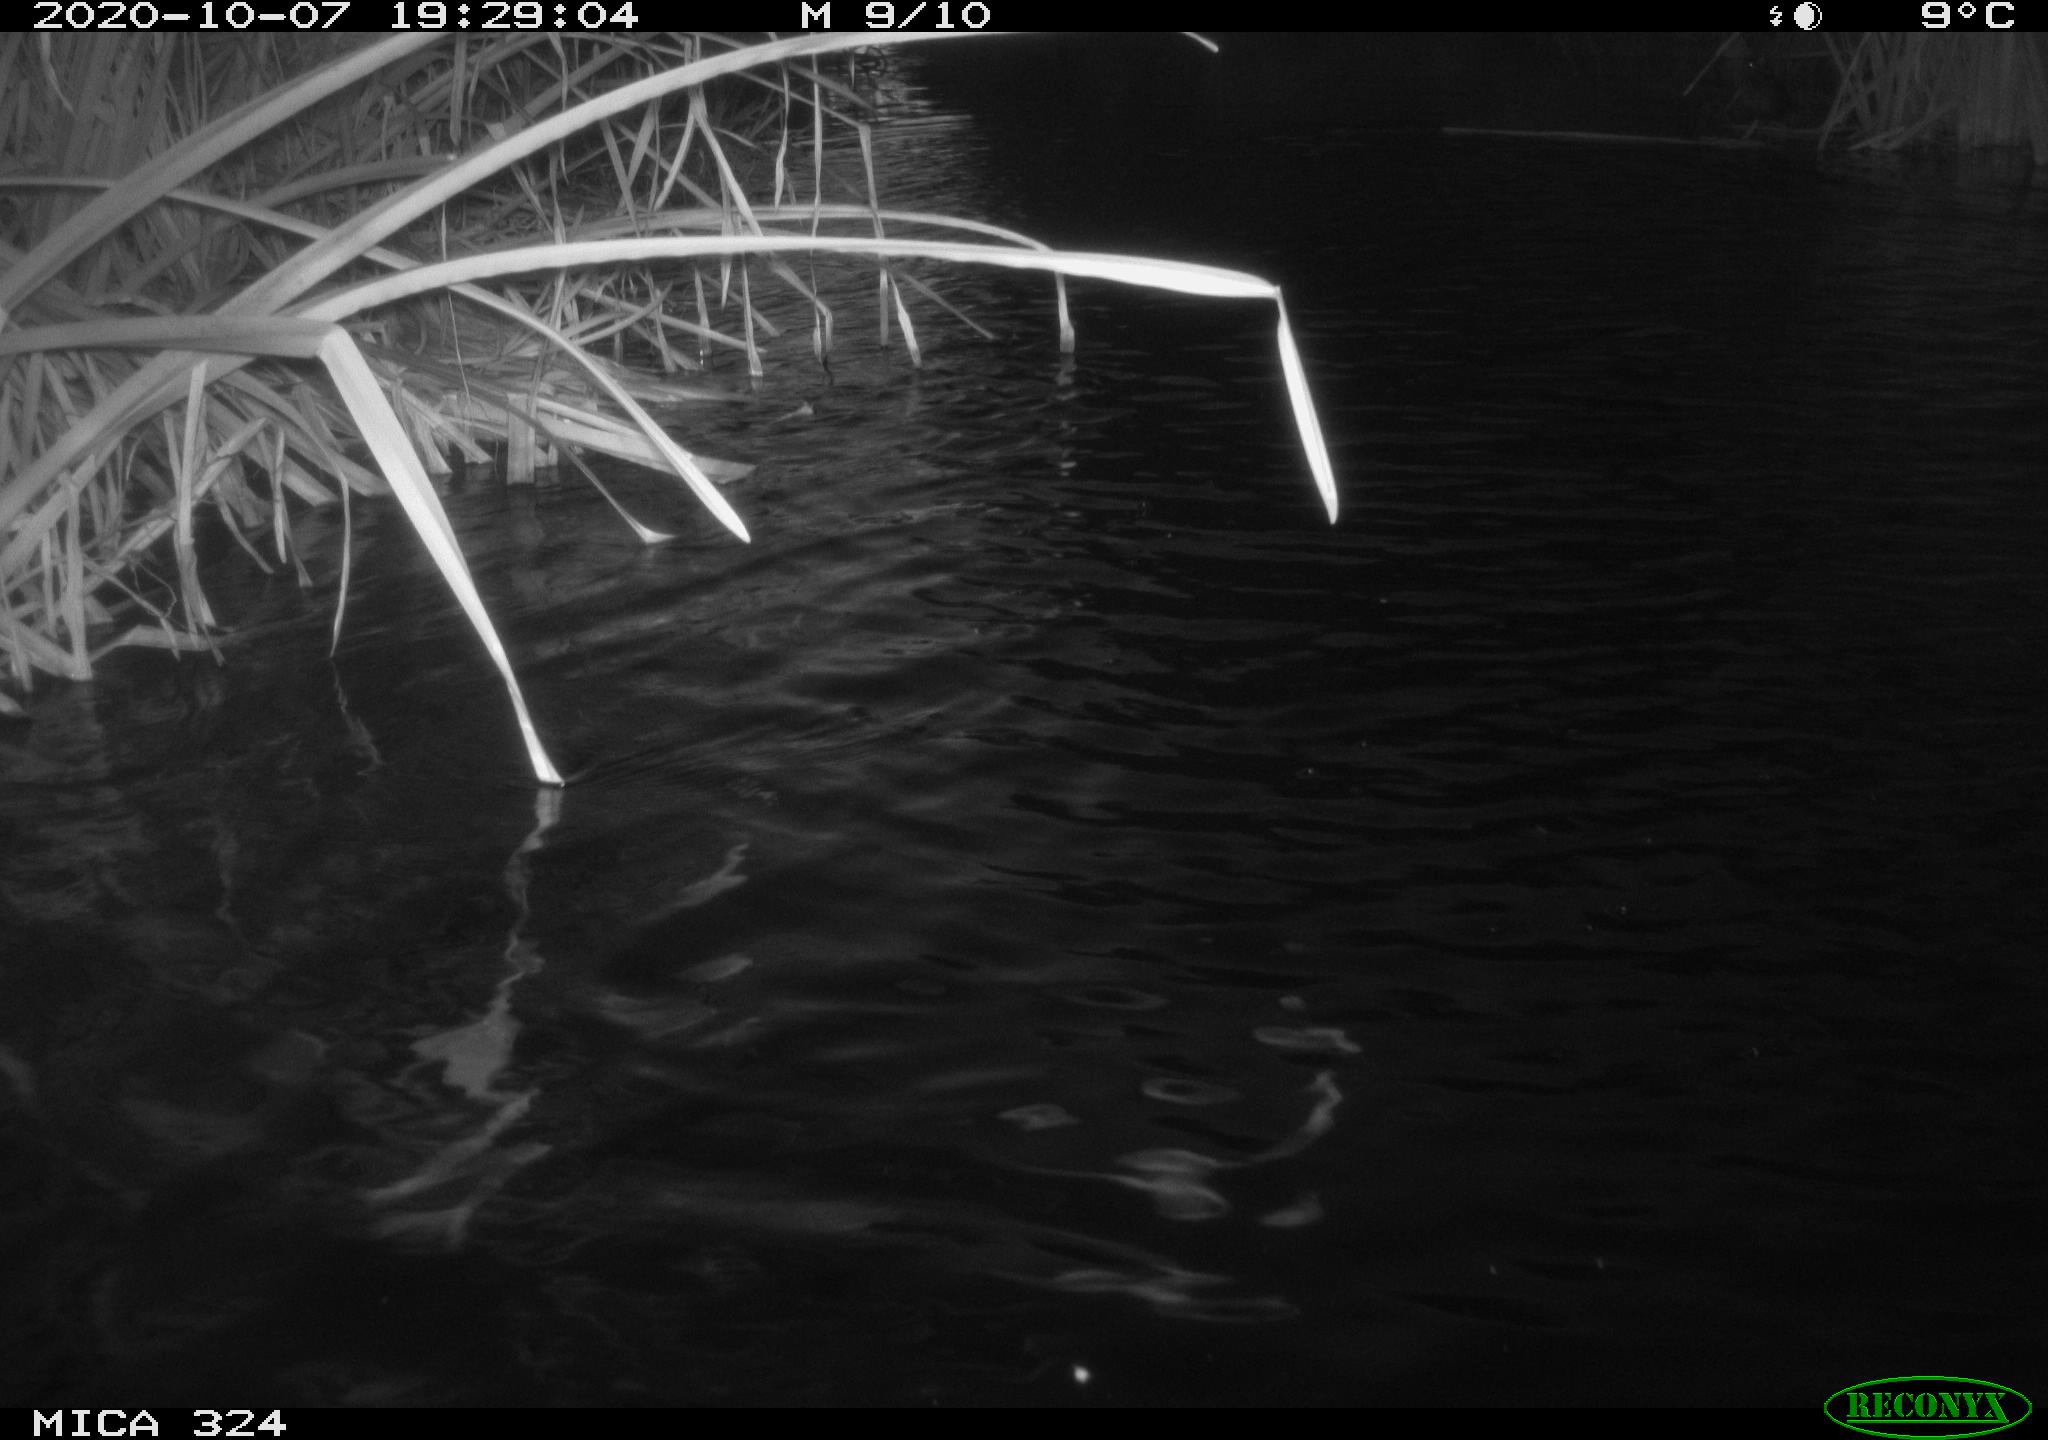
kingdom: Animalia
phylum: Chordata
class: Aves
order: Gruiformes
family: Rallidae
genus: Gallinula
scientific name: Gallinula chloropus
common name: Common moorhen
